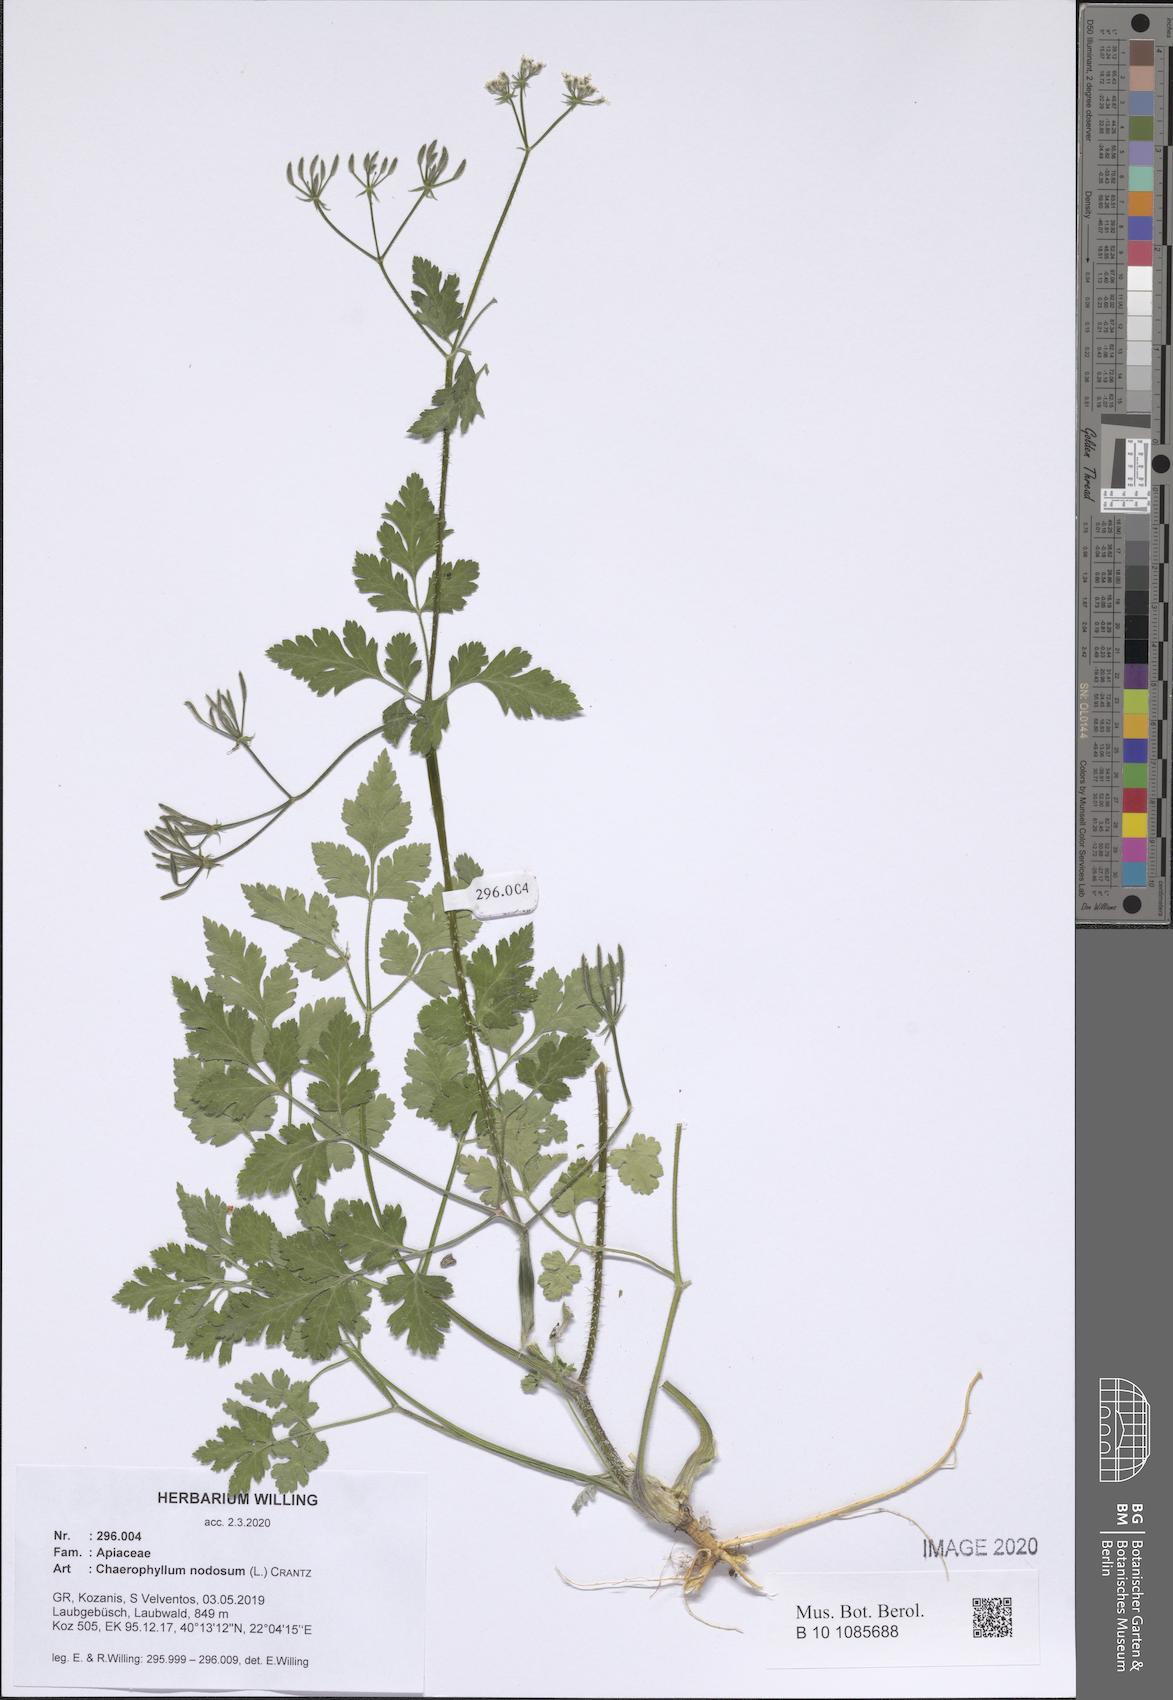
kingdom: Plantae
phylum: Tracheophyta
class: Magnoliopsida
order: Apiales
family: Apiaceae
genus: Chaerophyllum
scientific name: Chaerophyllum nodosum
